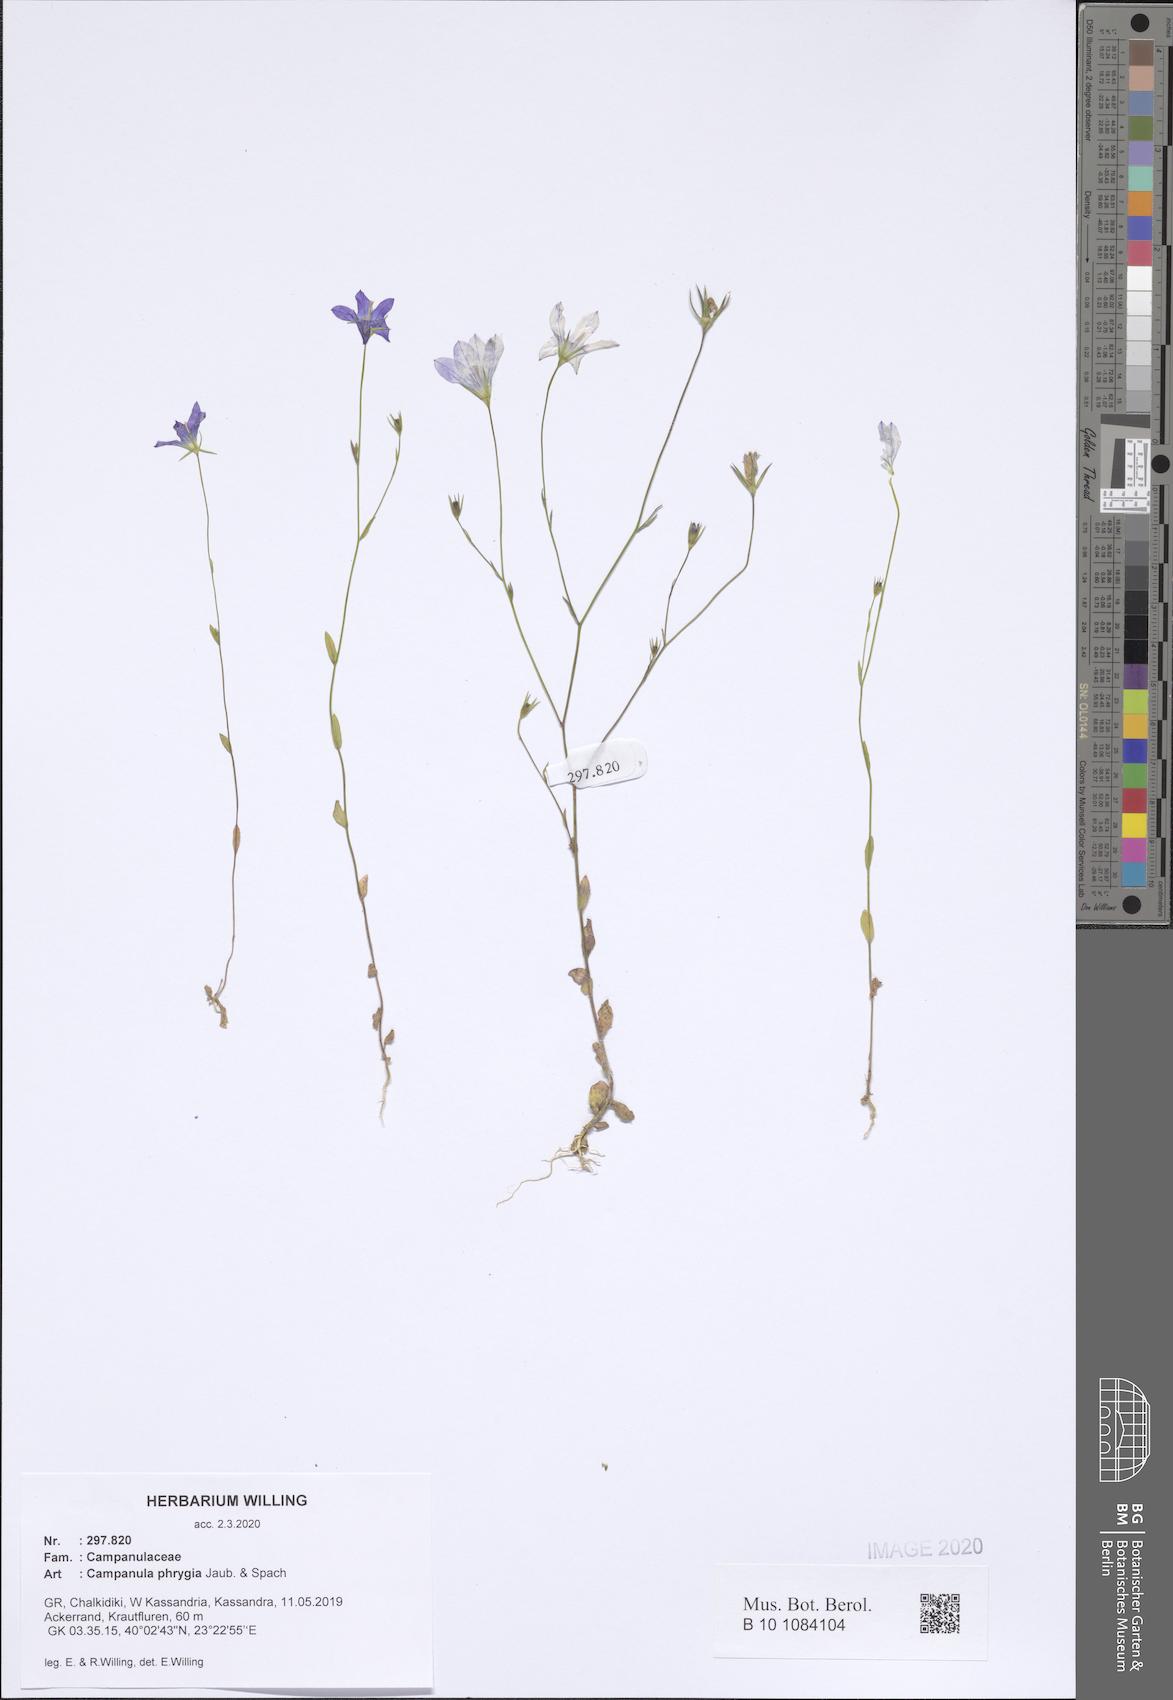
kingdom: Plantae
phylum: Tracheophyta
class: Magnoliopsida
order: Asterales
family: Campanulaceae
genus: Campanula
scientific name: Campanula phrygia
